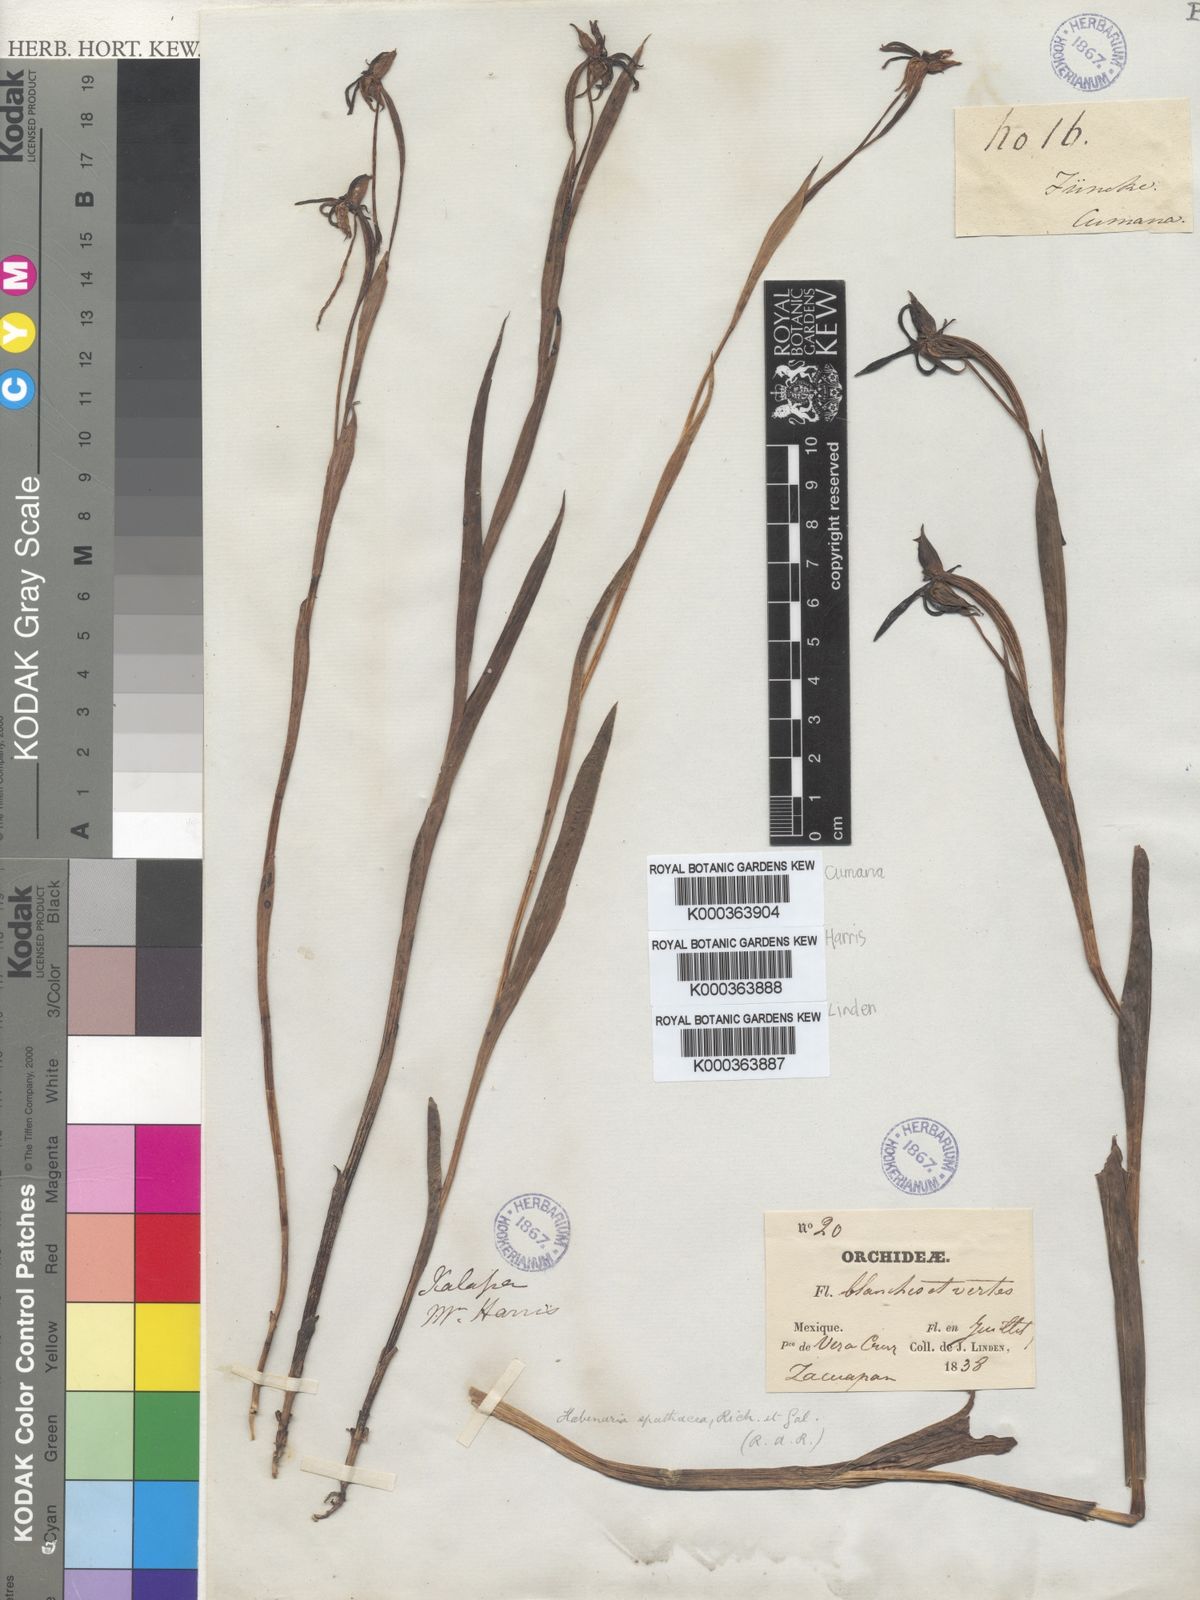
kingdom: Plantae
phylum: Tracheophyta
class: Liliopsida
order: Asparagales
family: Orchidaceae
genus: Habenaria
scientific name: Habenaria trifida
